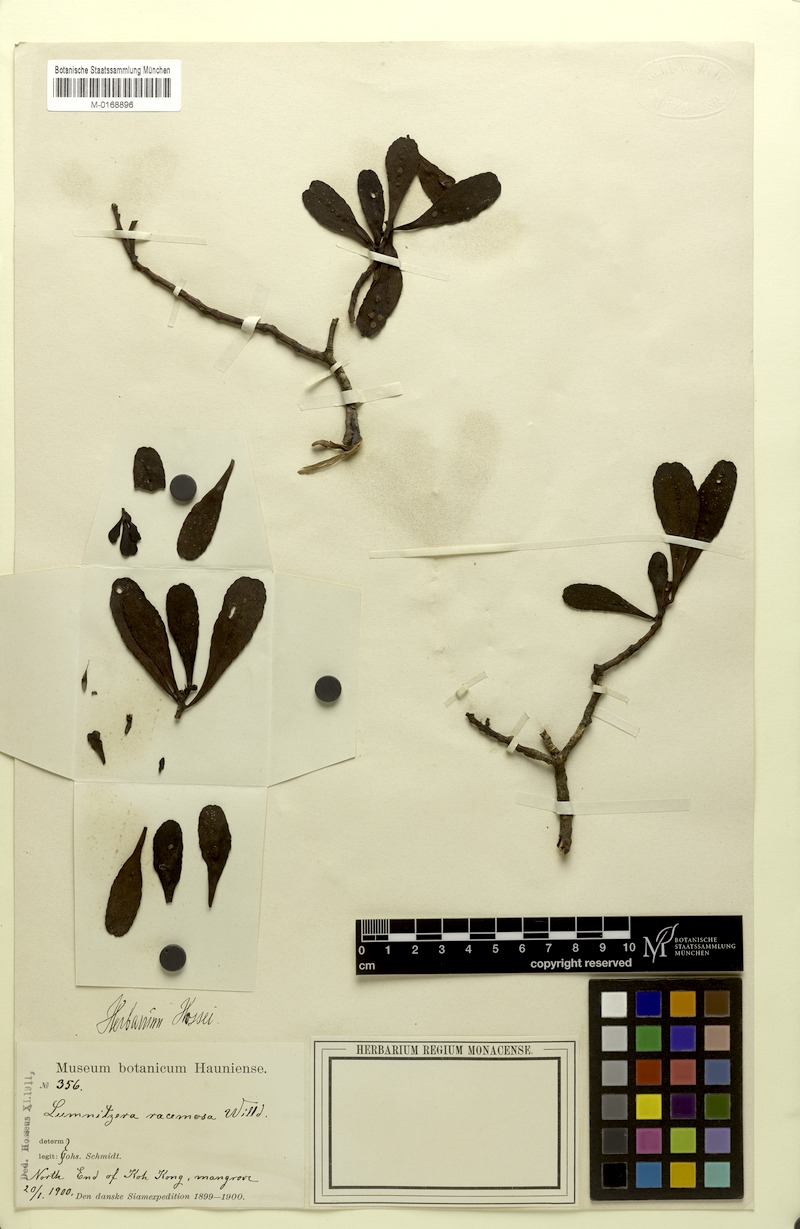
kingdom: Plantae
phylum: Tracheophyta
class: Magnoliopsida
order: Myrtales
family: Combretaceae
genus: Lumnitzera
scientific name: Lumnitzera racemosa
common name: White-flowered black mangrove
